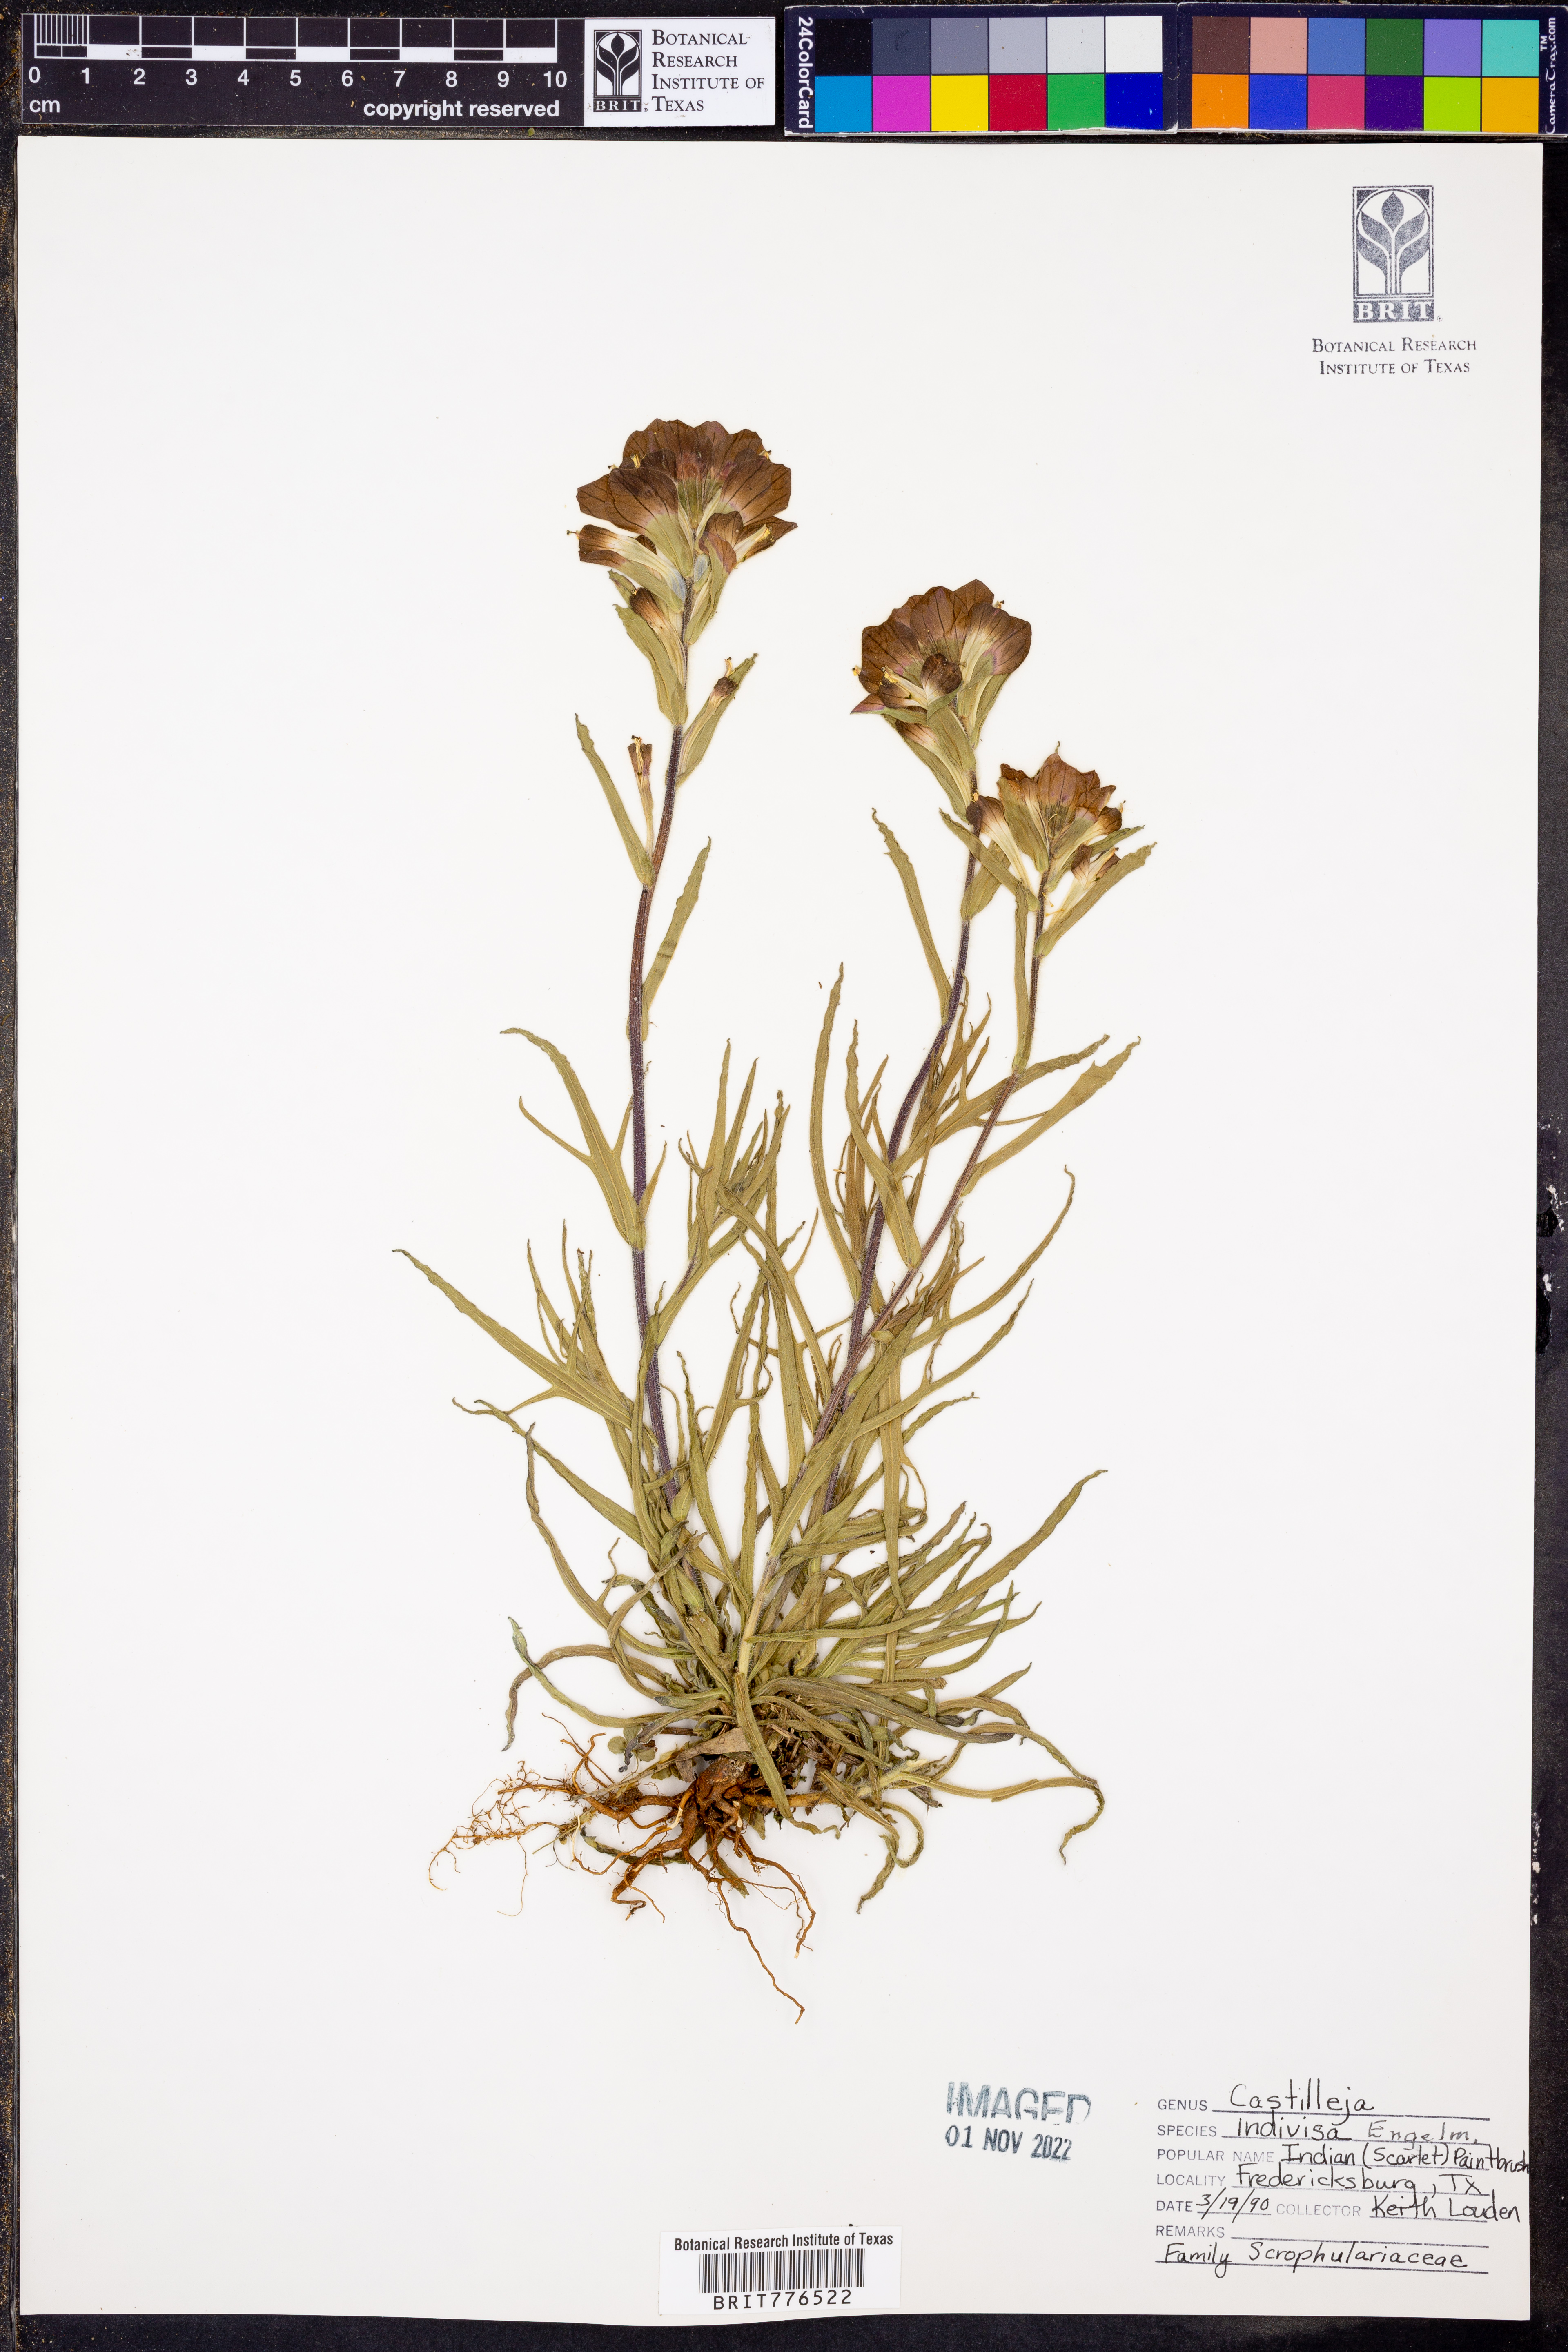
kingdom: Plantae
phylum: Tracheophyta
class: Magnoliopsida
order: Lamiales
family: Orobanchaceae
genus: Castilleja
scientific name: Castilleja indivisa
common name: Texas paintbrush
